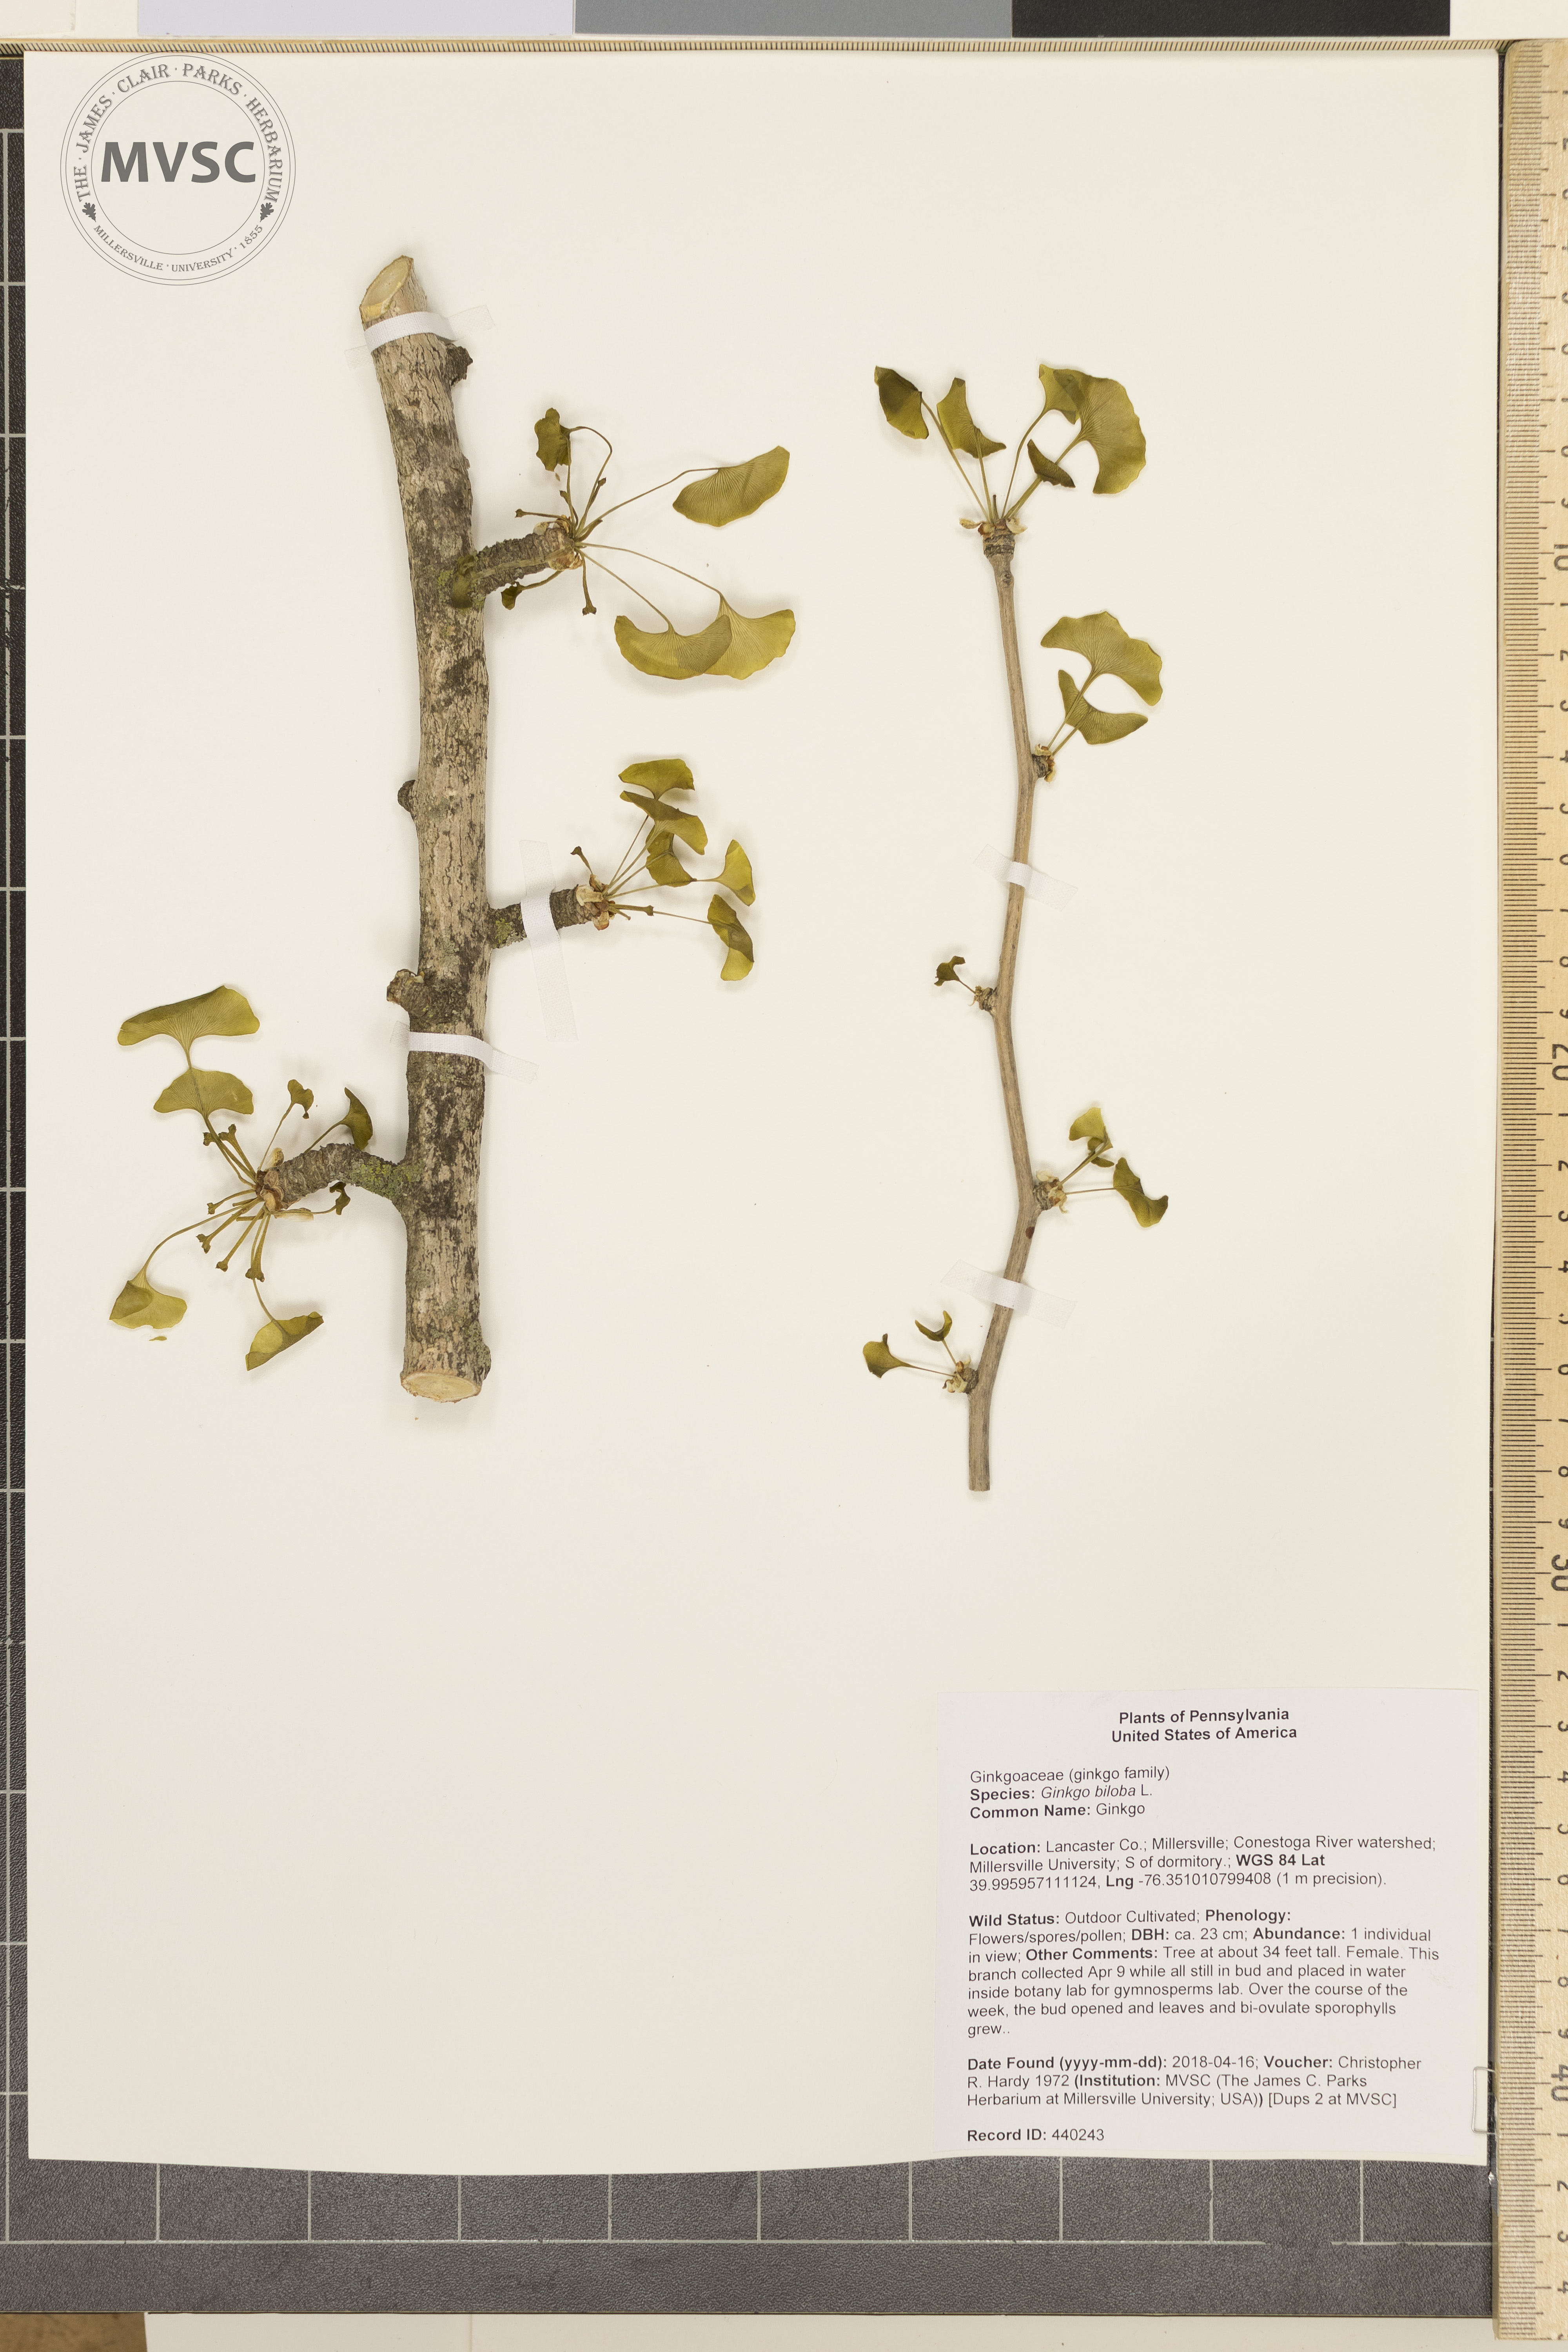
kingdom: Plantae
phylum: Tracheophyta
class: Ginkgoopsida
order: Ginkgoales
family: Ginkgoaceae
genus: Ginkgo
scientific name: Ginkgo biloba
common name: Ginkgo
